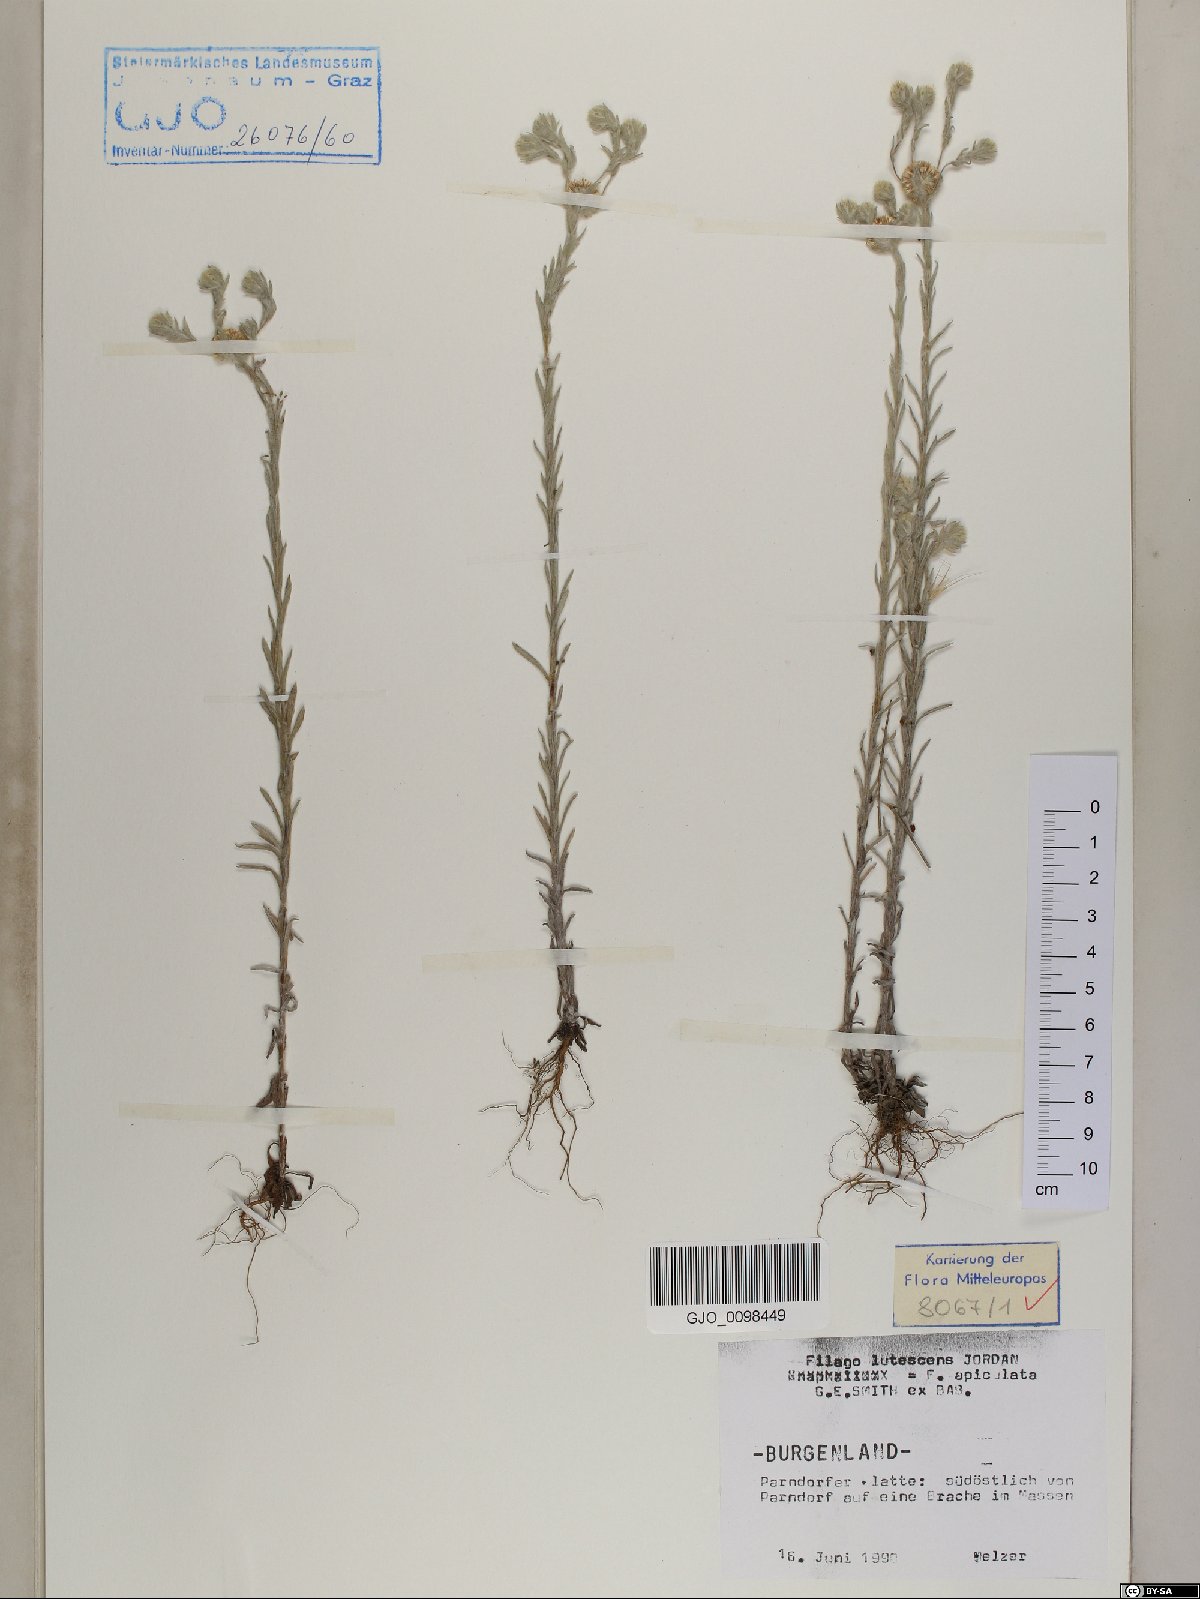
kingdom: Plantae
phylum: Tracheophyta
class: Magnoliopsida
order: Asterales
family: Asteraceae
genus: Filago
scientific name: Filago lutescens
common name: Red-tipped cudweed
